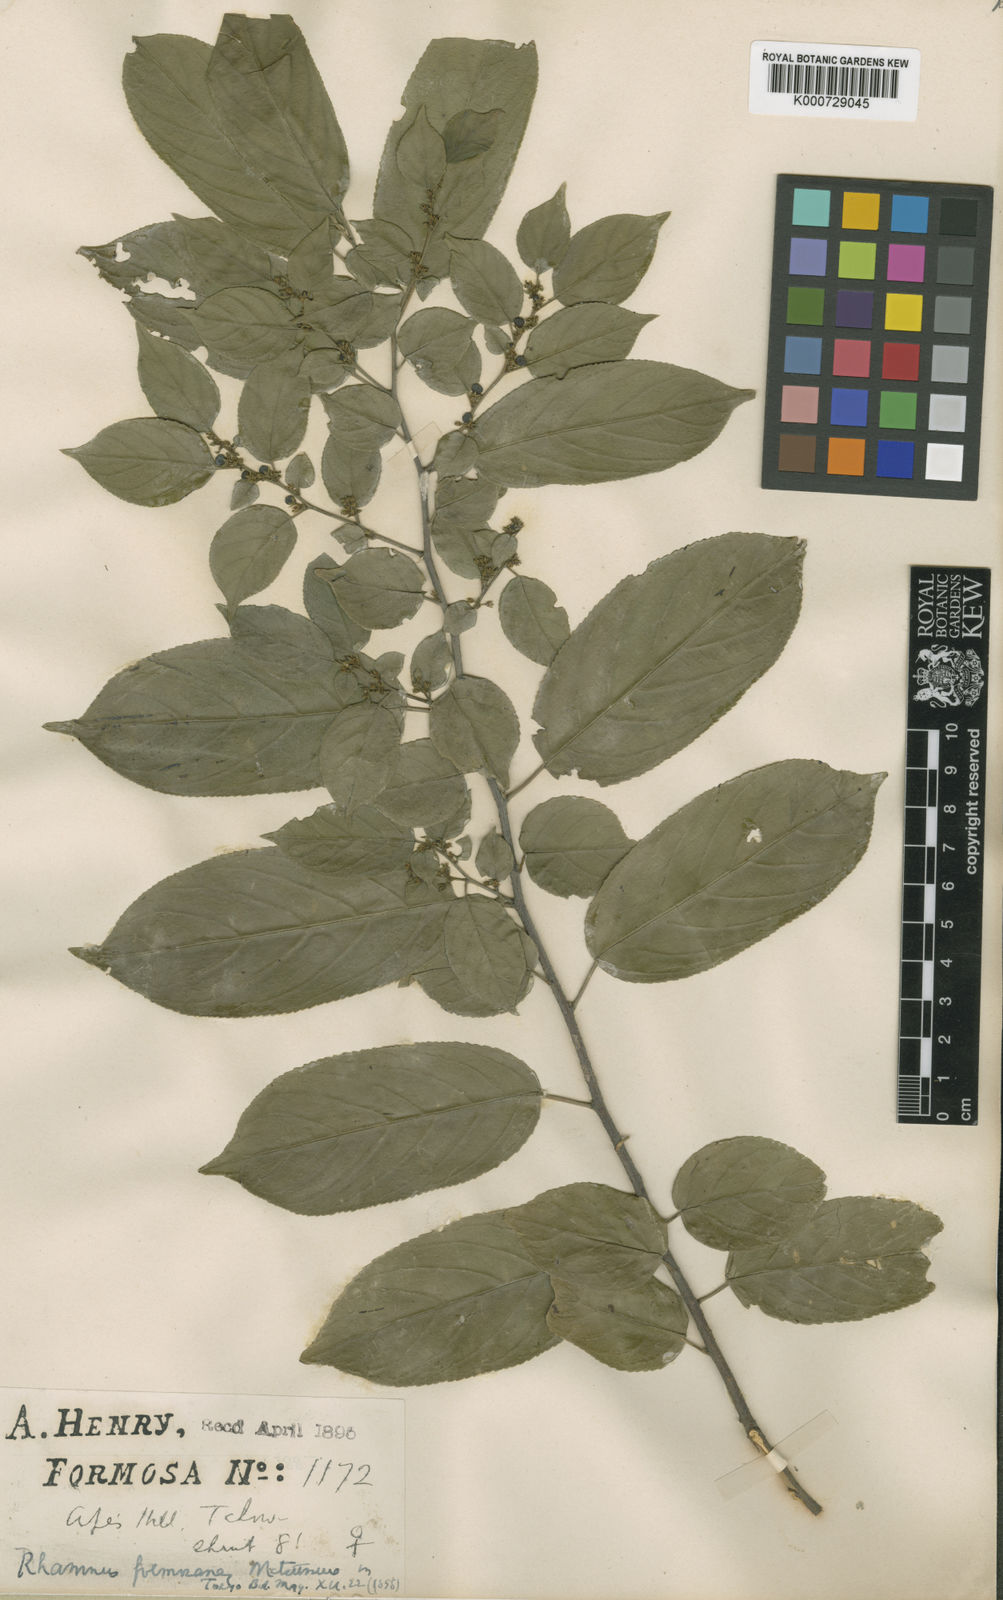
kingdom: Plantae
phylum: Tracheophyta
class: Magnoliopsida
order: Rosales
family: Rhamnaceae
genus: Rhamnus
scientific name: Rhamnus formosana
